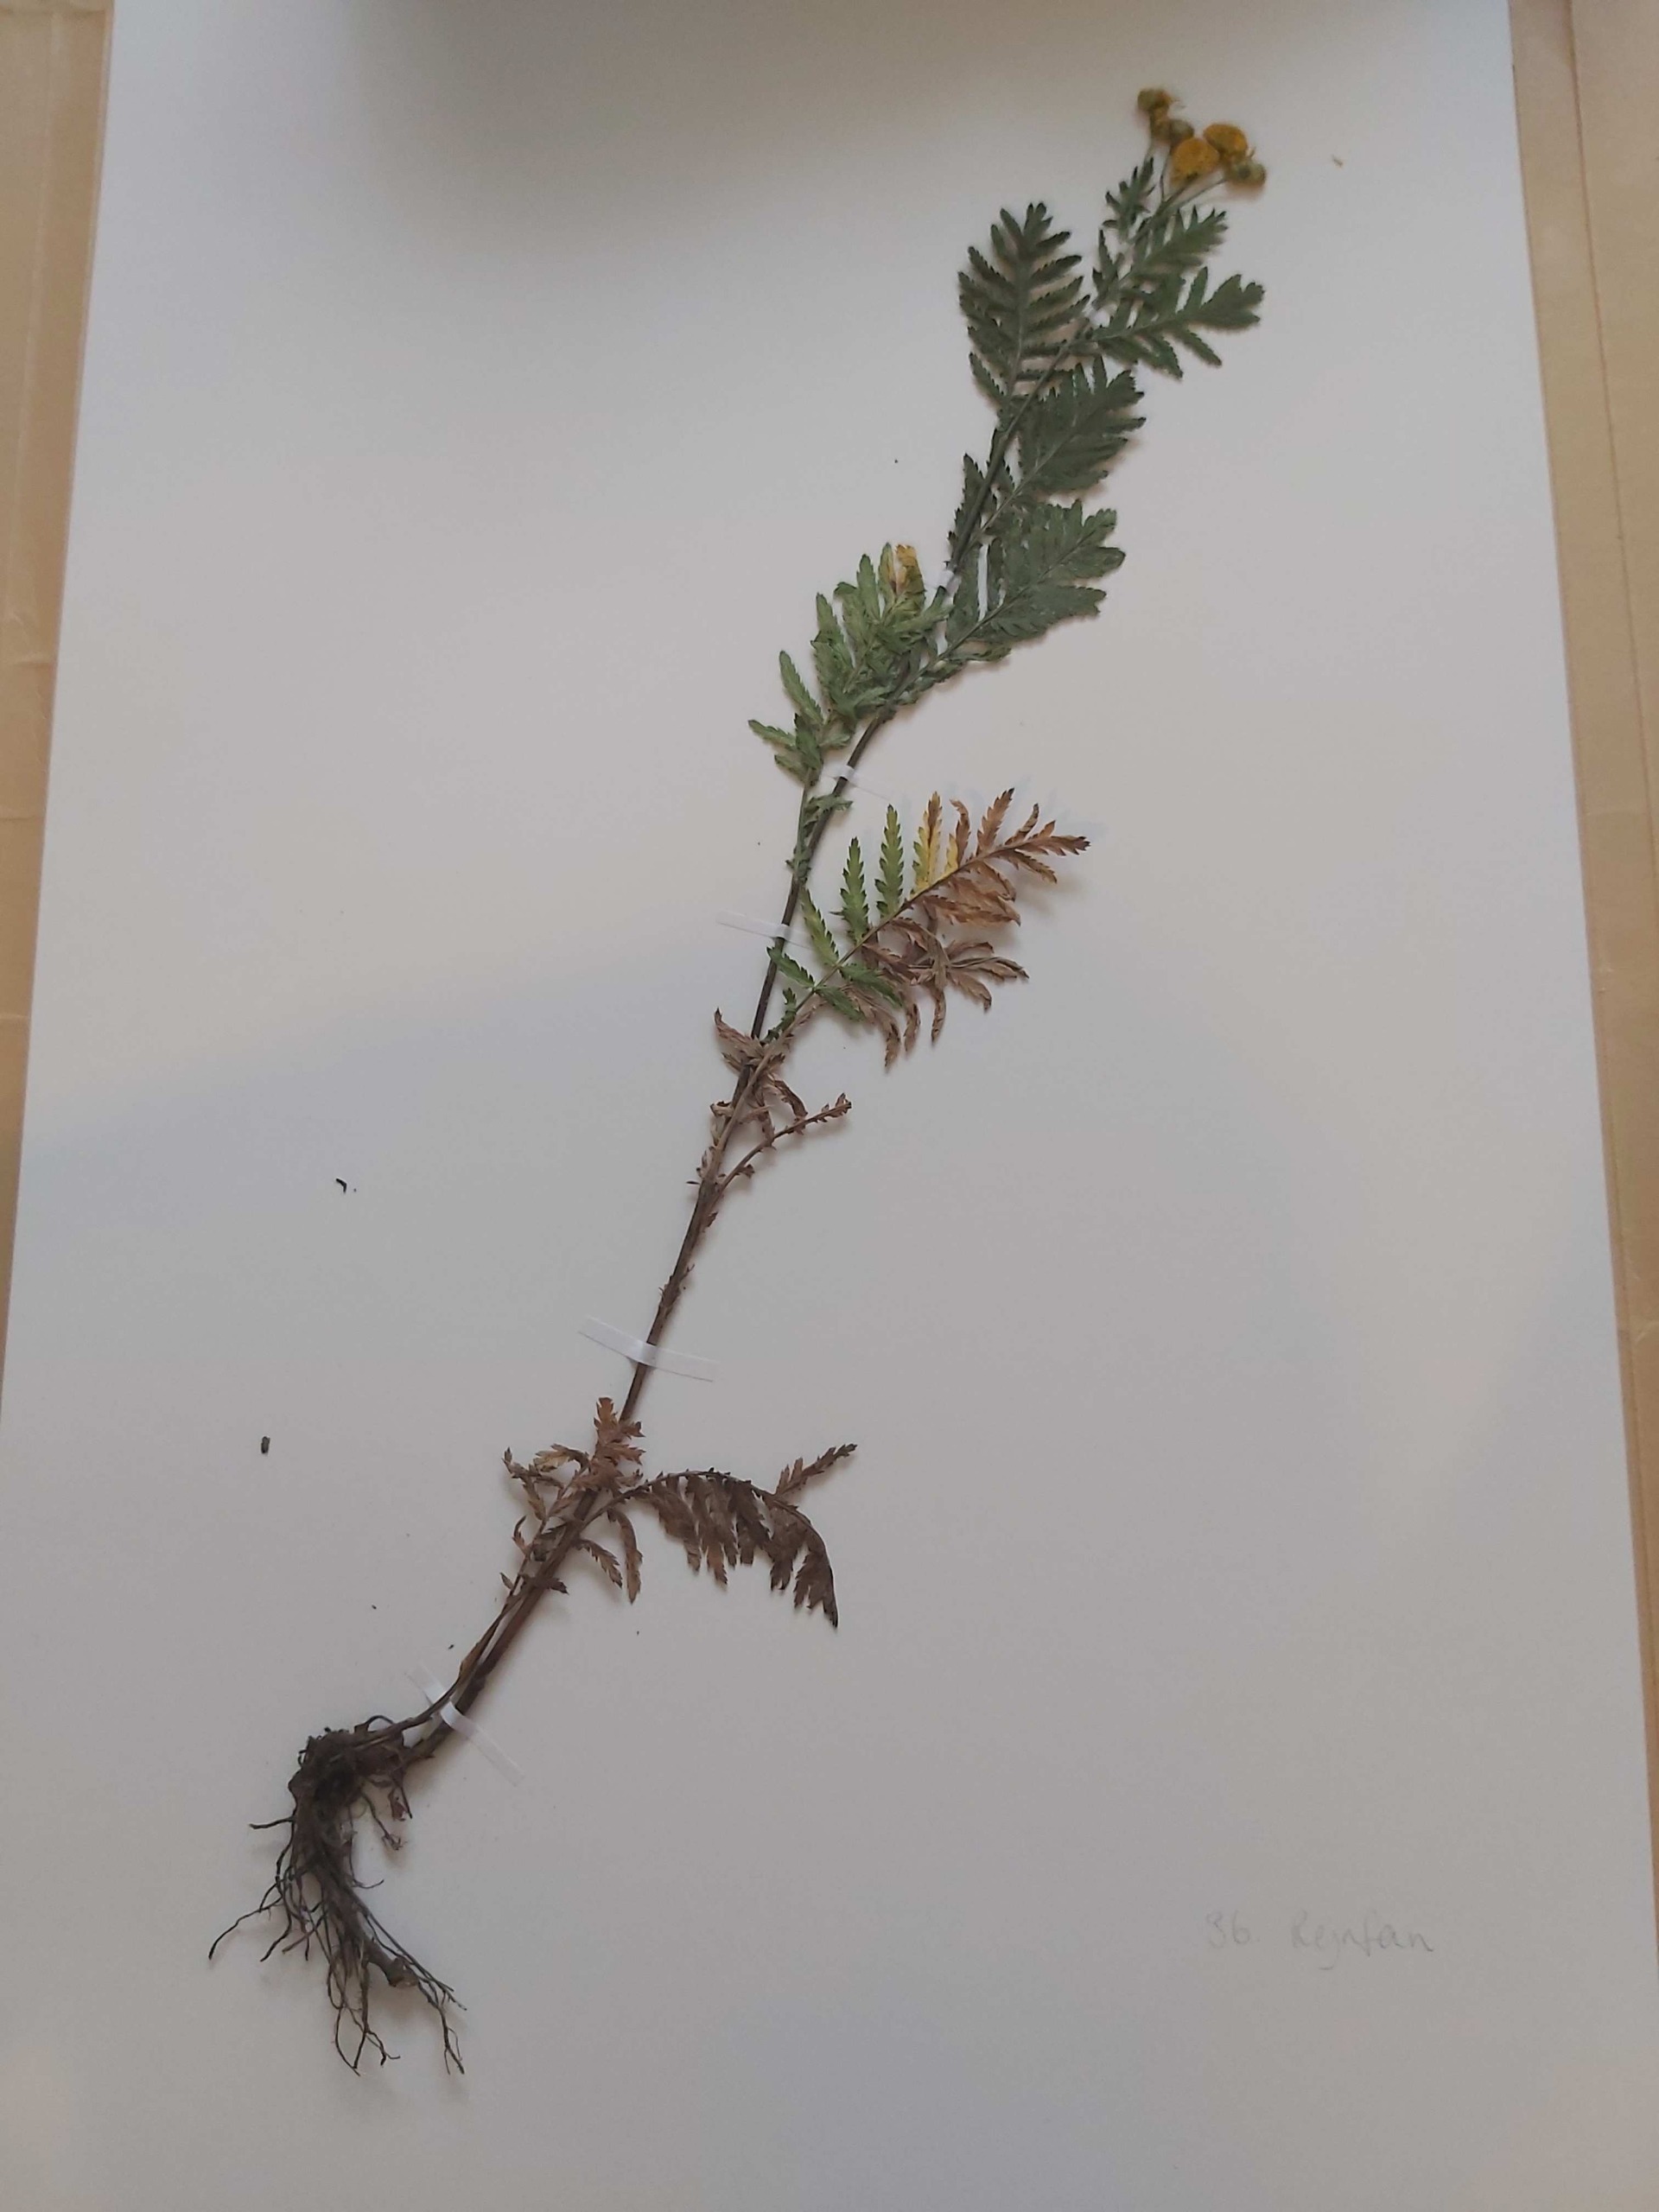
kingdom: Plantae
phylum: Tracheophyta
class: Magnoliopsida
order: Asterales
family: Asteraceae
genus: Tanacetum
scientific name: Tanacetum vulgare
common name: Rejnfan
